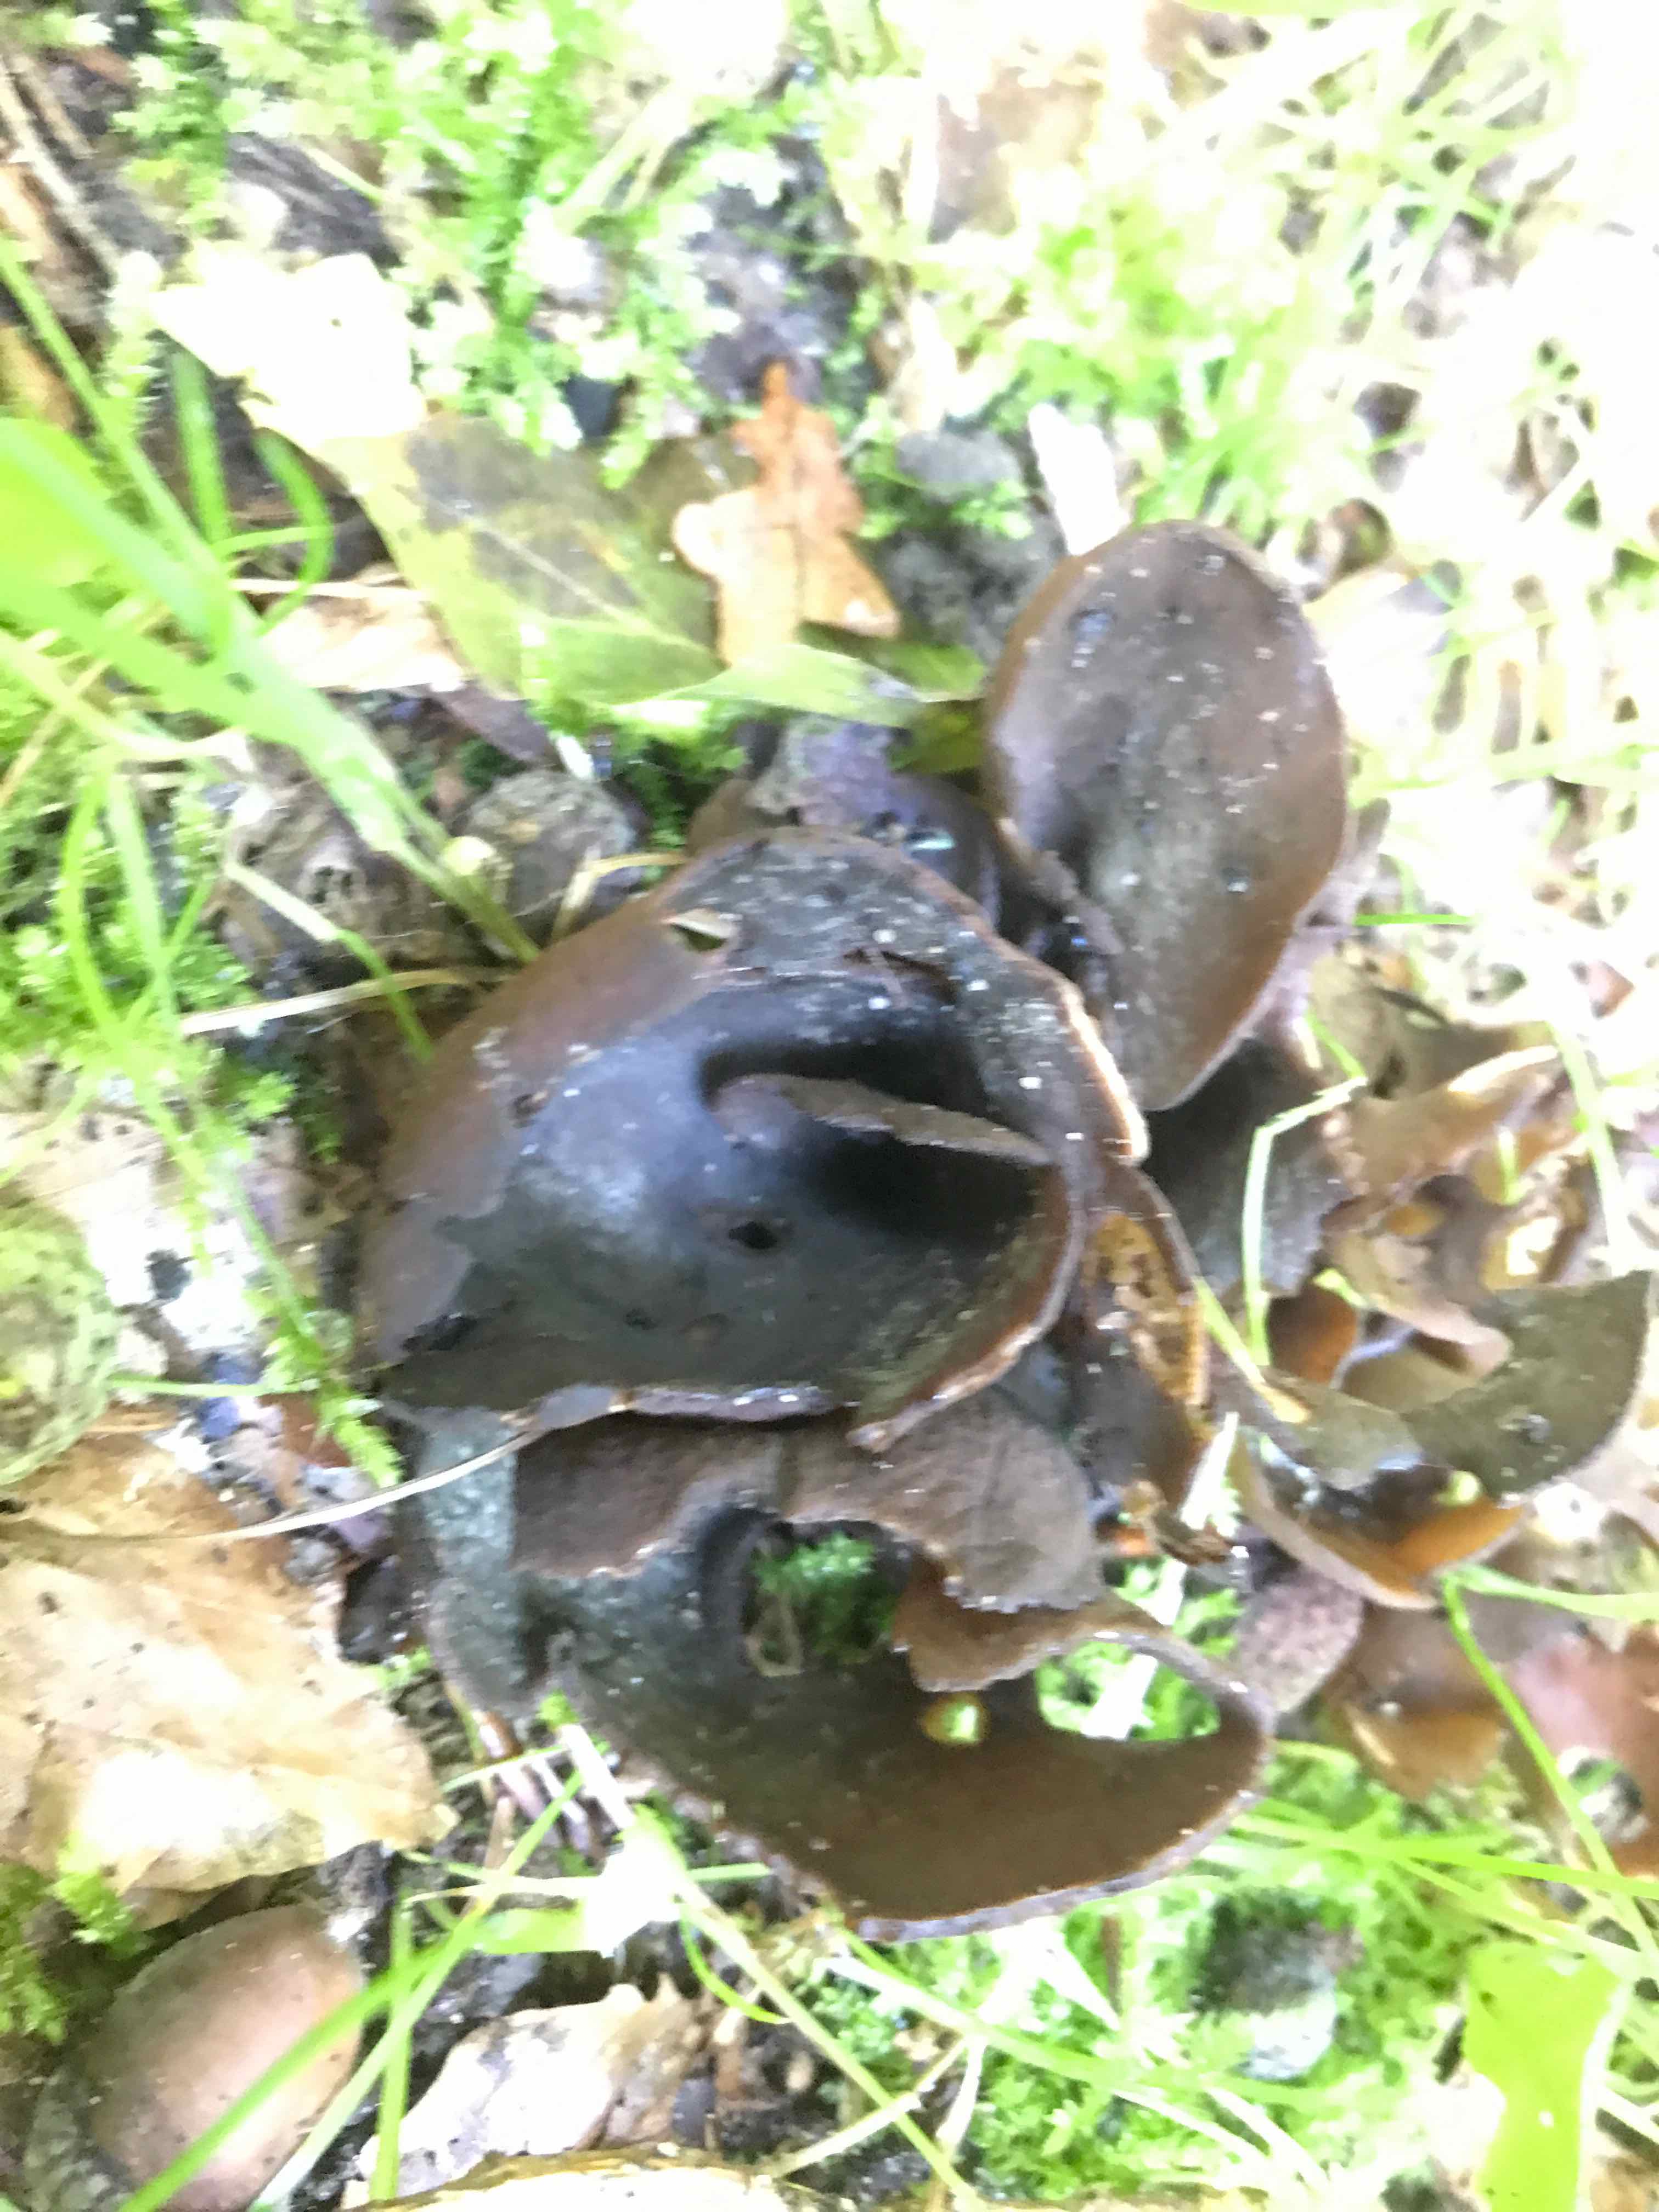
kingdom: Fungi
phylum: Ascomycota
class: Pezizomycetes
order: Pezizales
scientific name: Pezizales
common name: bægersvampordenen
